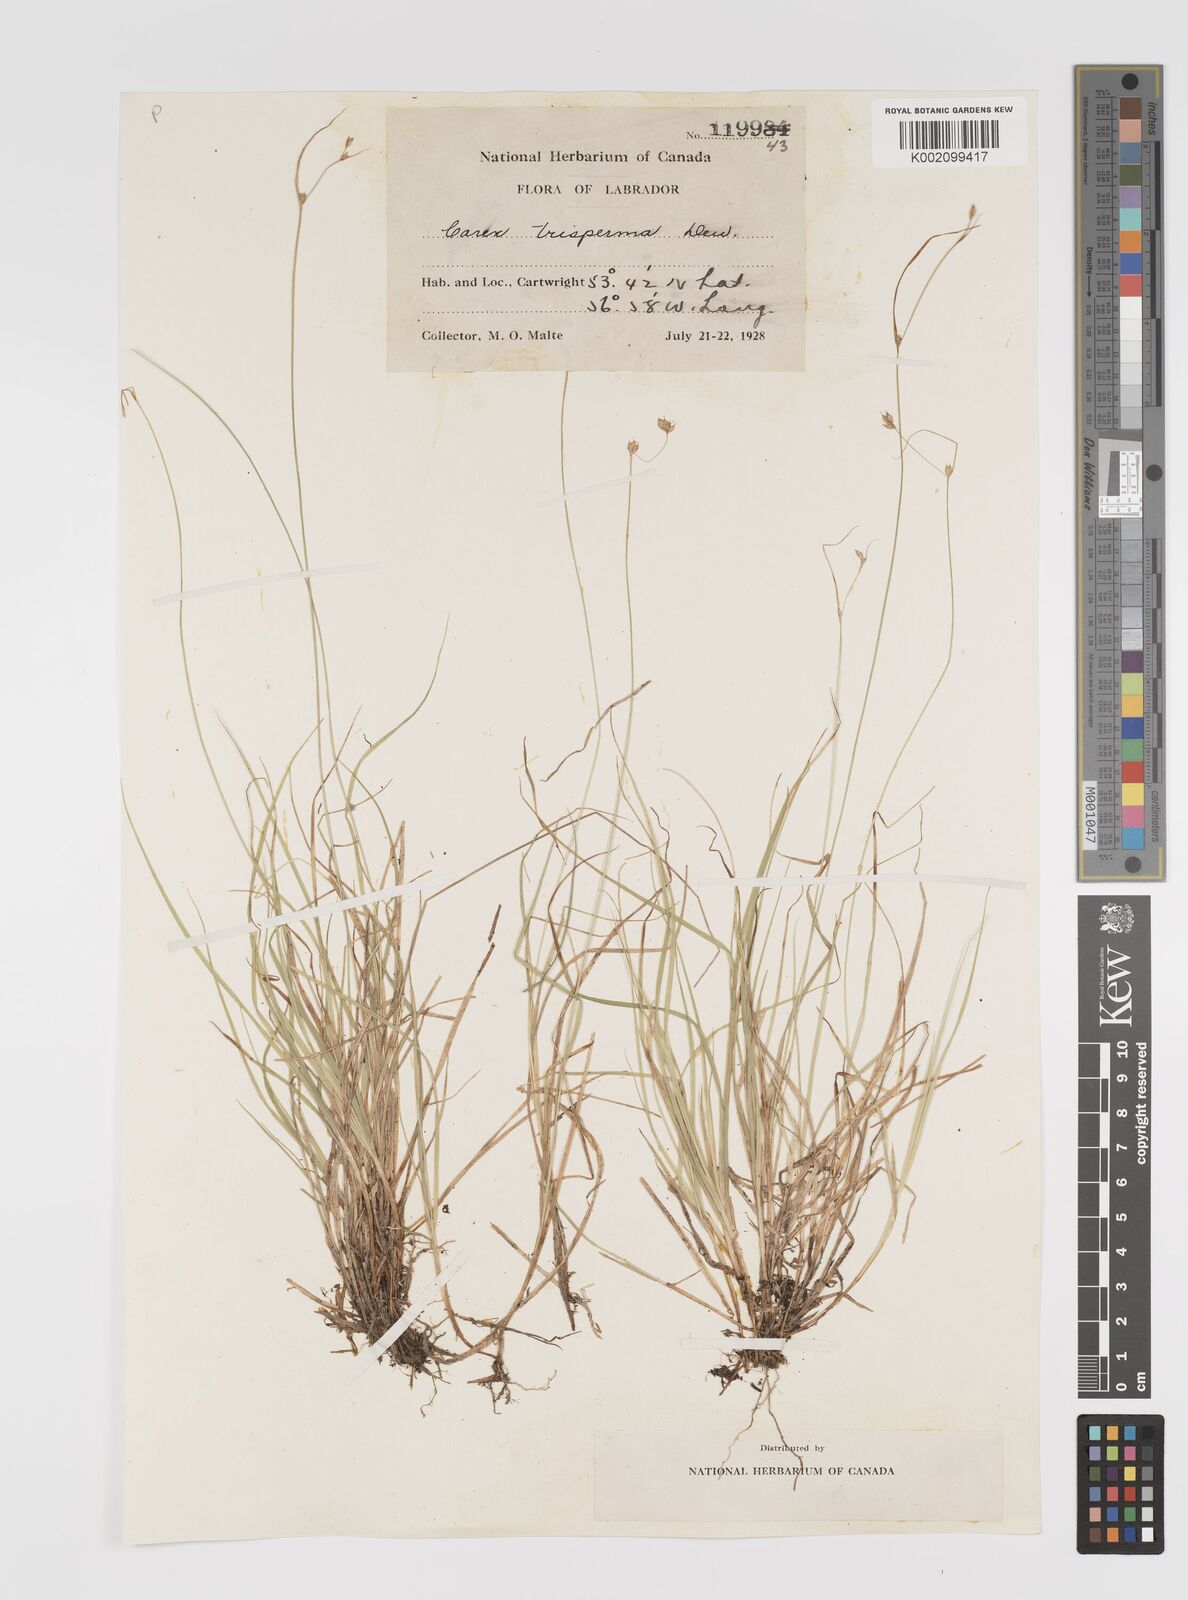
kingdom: Plantae
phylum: Tracheophyta
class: Liliopsida
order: Poales
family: Cyperaceae
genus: Carex
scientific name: Carex trisperma
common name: Three-seeded sedge
